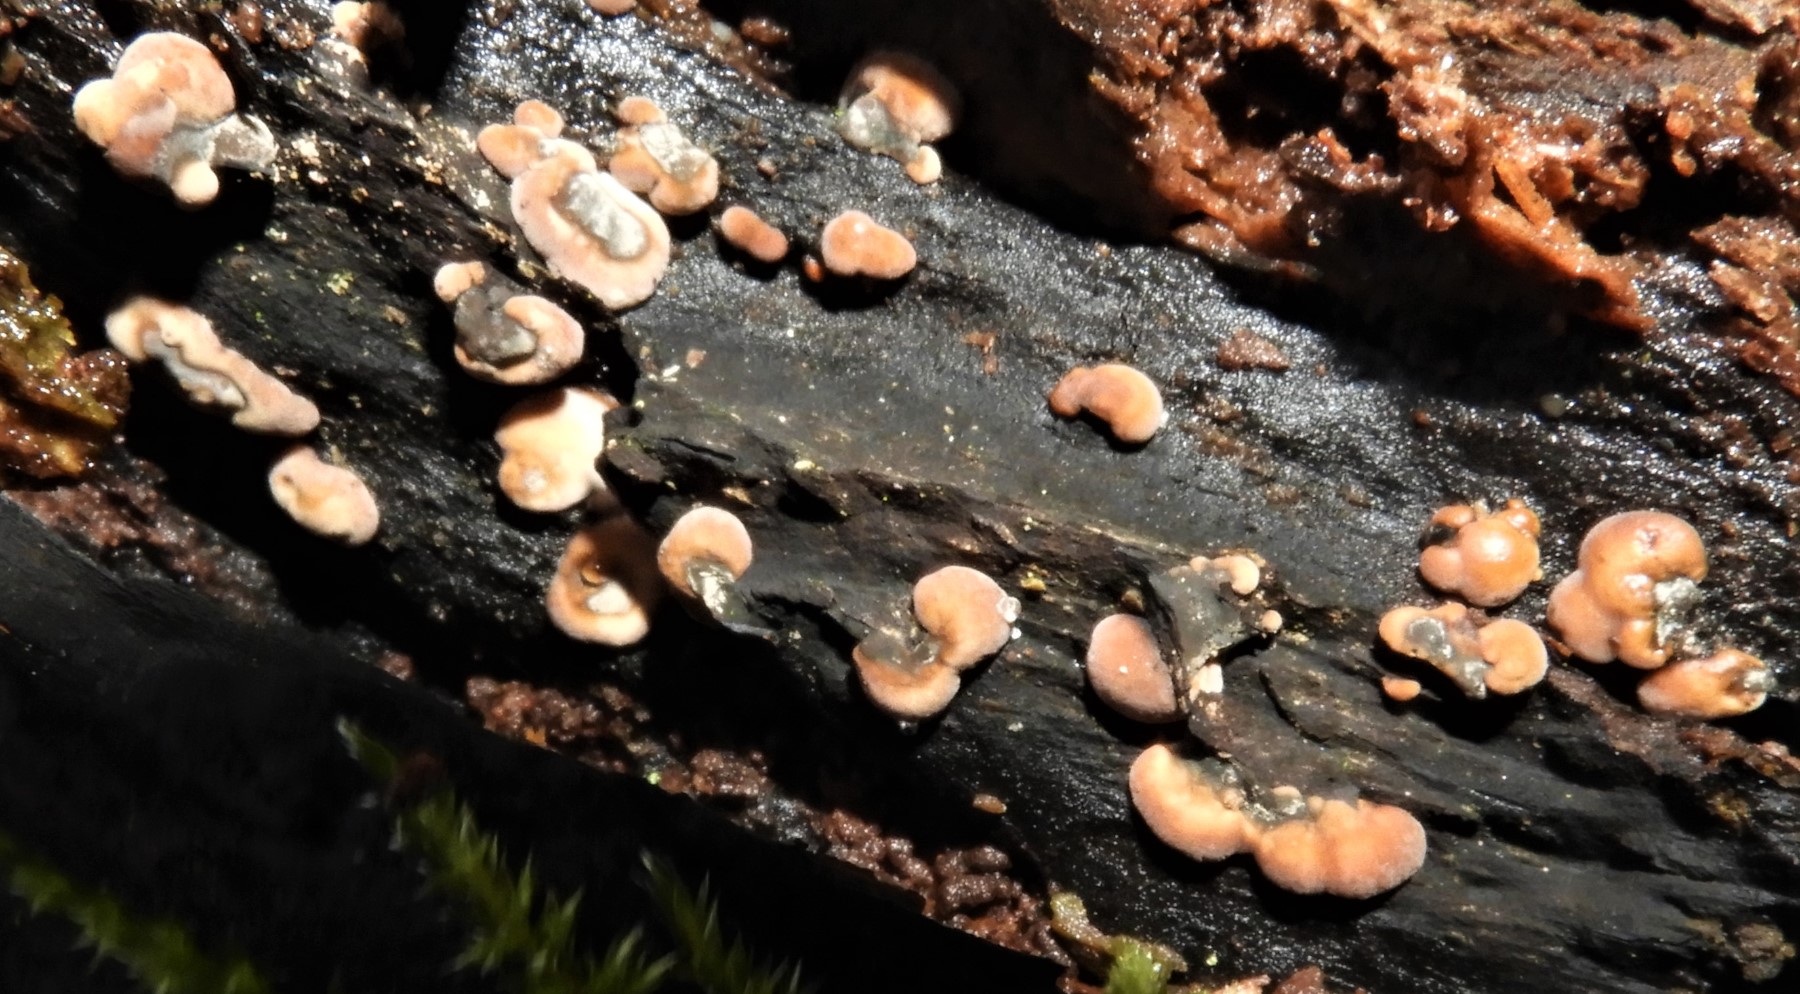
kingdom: Fungi
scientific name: Fungi
